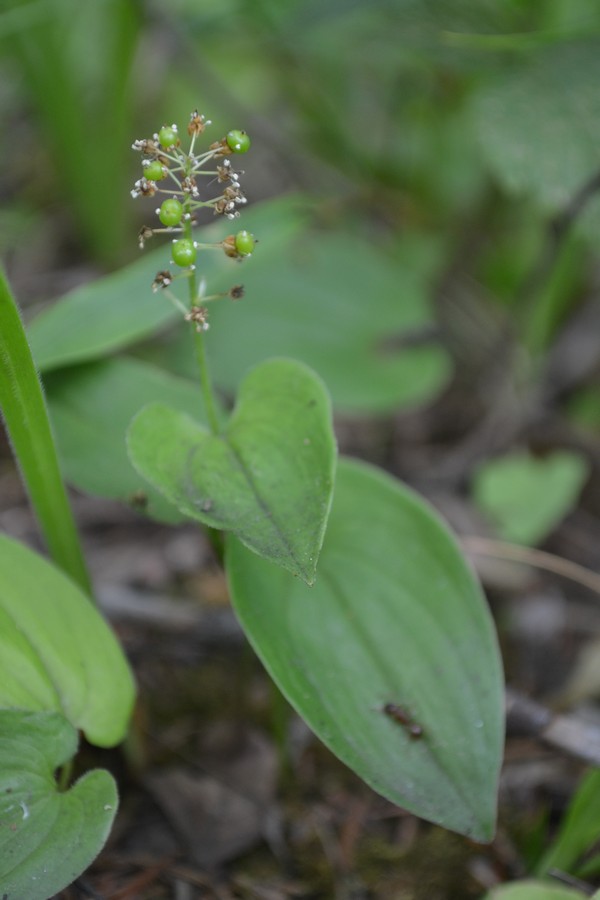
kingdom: Plantae
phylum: Tracheophyta
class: Liliopsida
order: Asparagales
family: Asparagaceae
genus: Maianthemum
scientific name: Maianthemum bifolium
